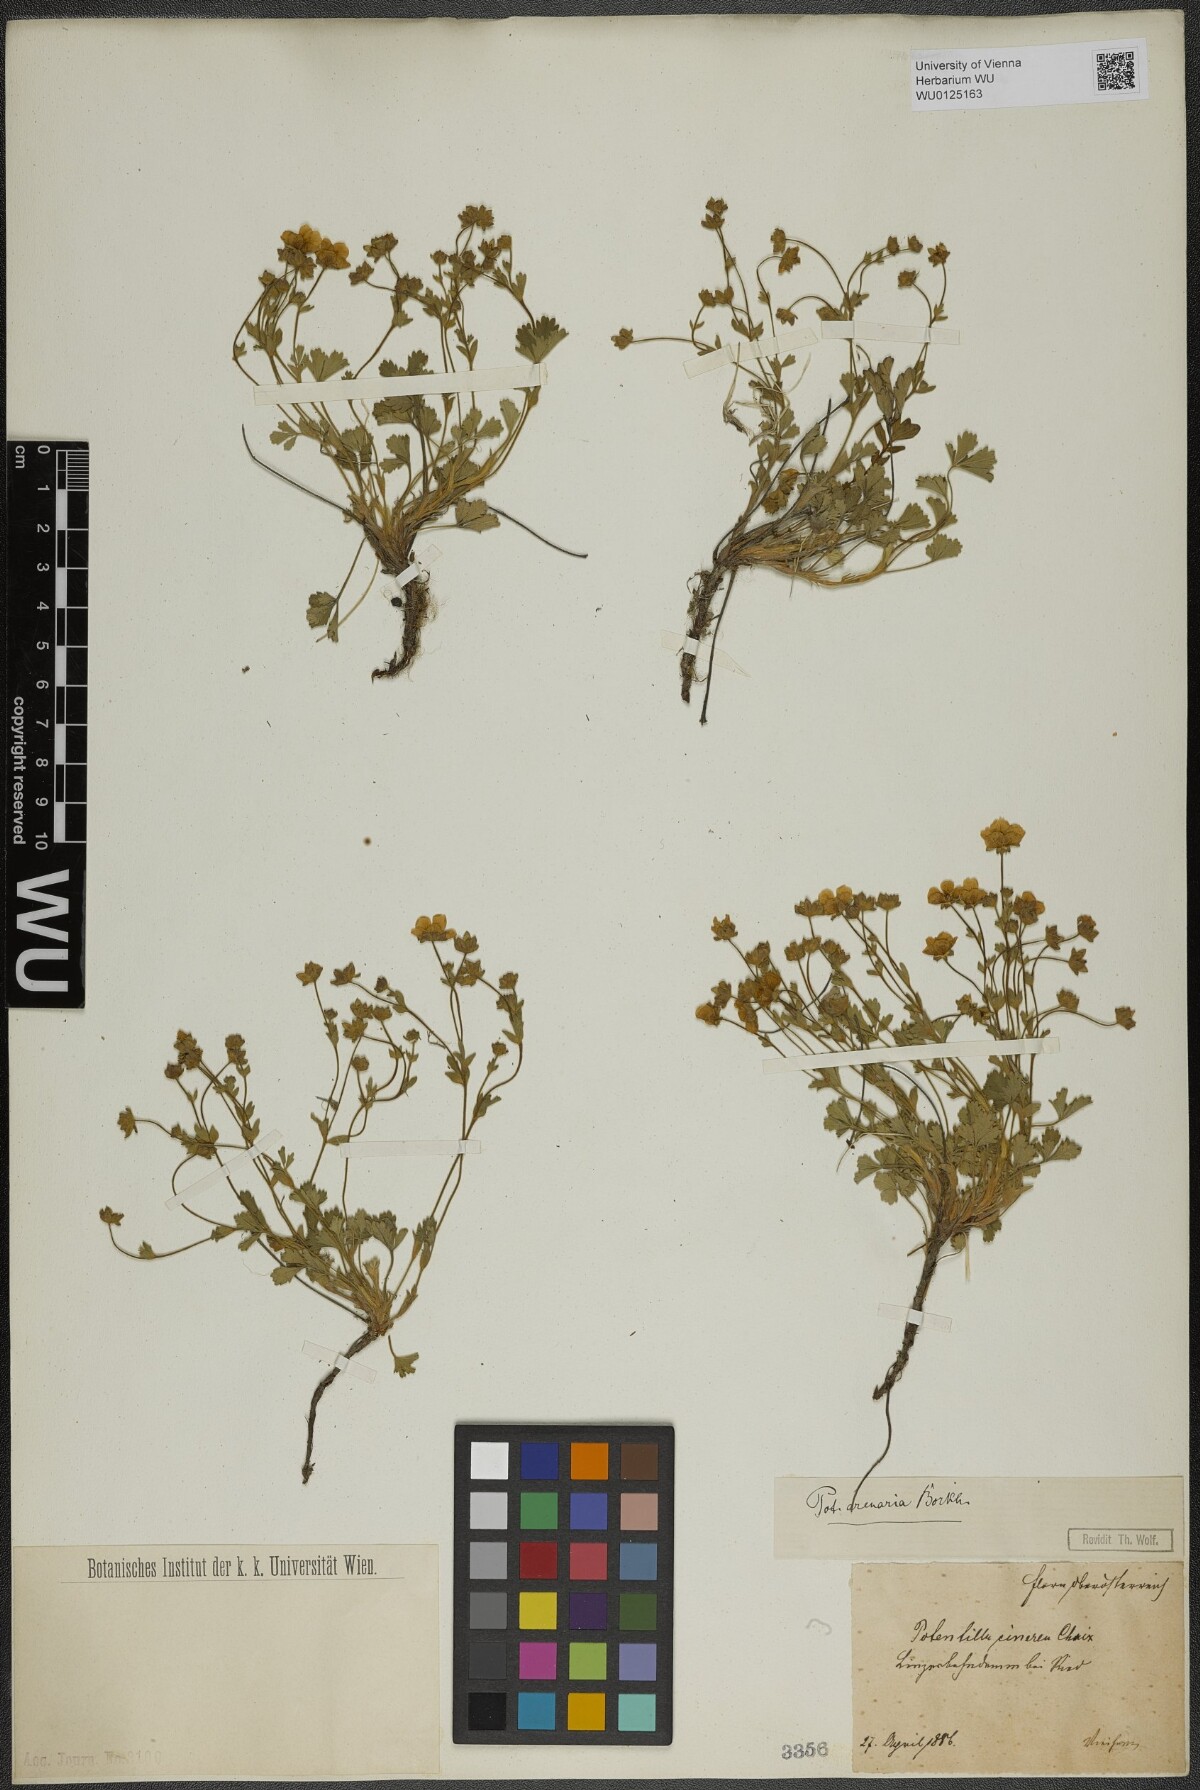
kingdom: Plantae
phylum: Tracheophyta
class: Magnoliopsida
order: Rosales
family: Rosaceae
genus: Potentilla
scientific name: Potentilla cinerea
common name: Ashy cinquefoil
